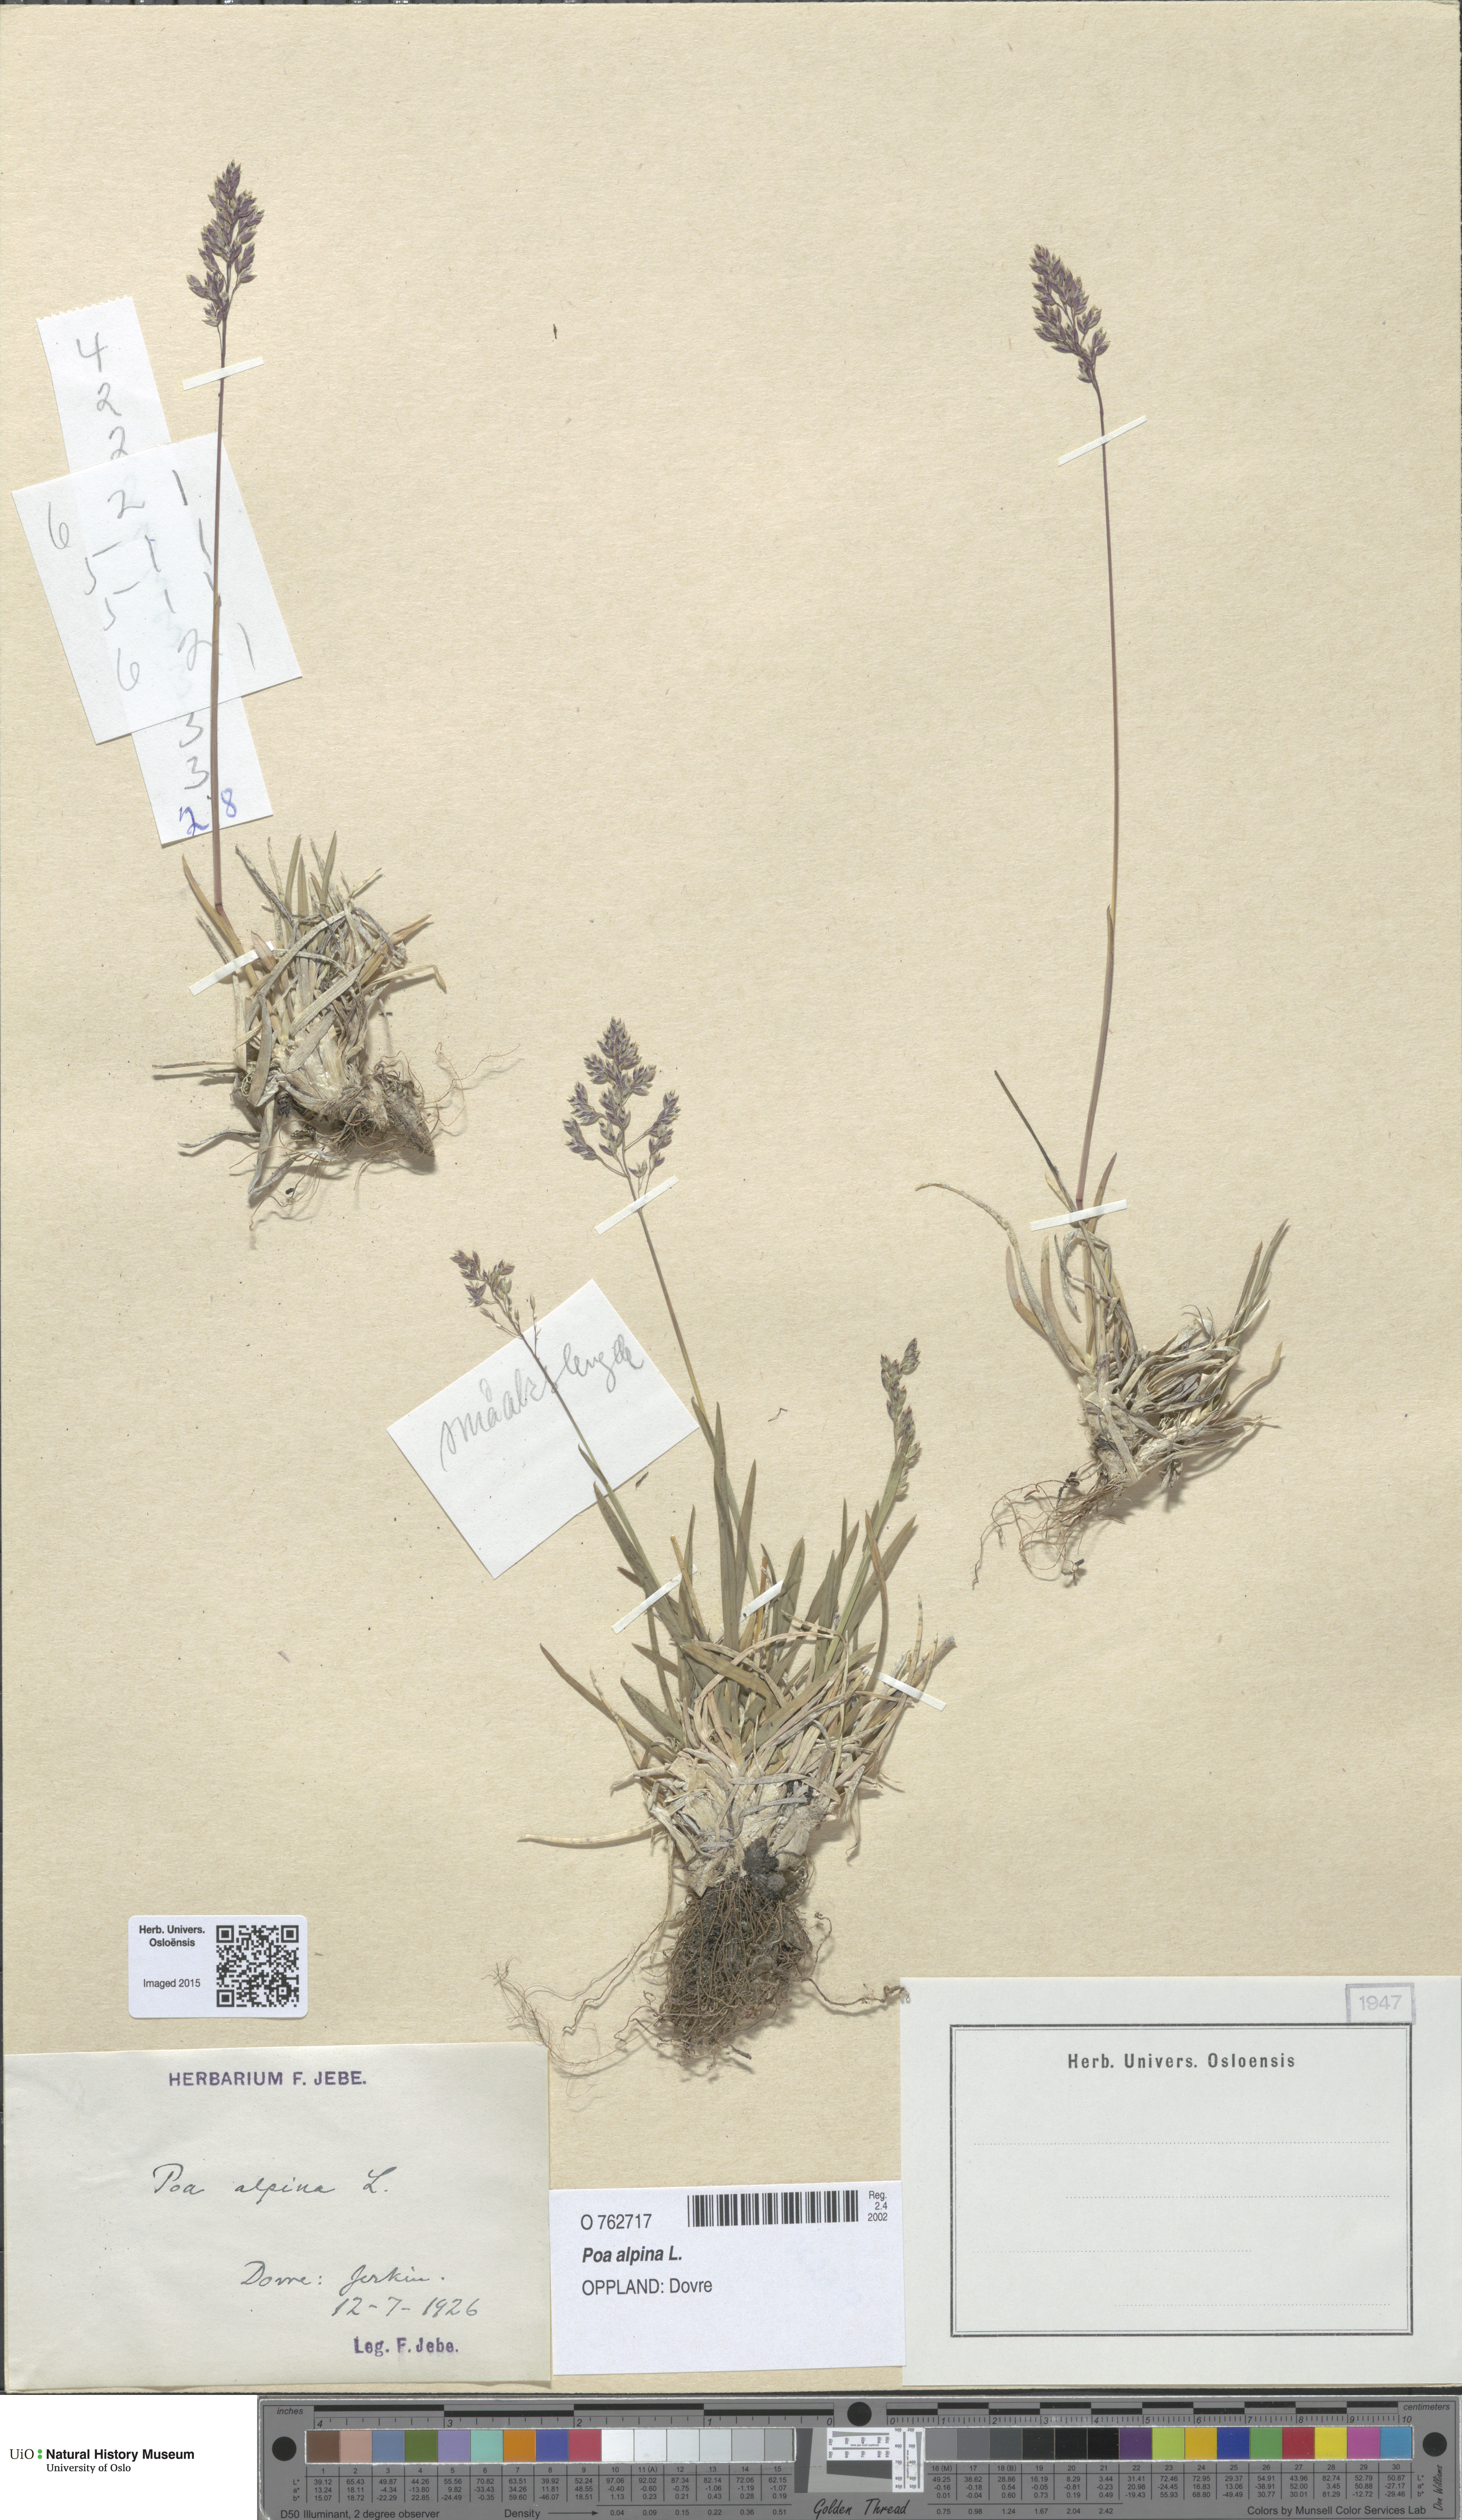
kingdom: Plantae
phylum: Tracheophyta
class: Liliopsida
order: Poales
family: Poaceae
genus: Poa
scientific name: Poa alpina
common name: Alpine bluegrass
